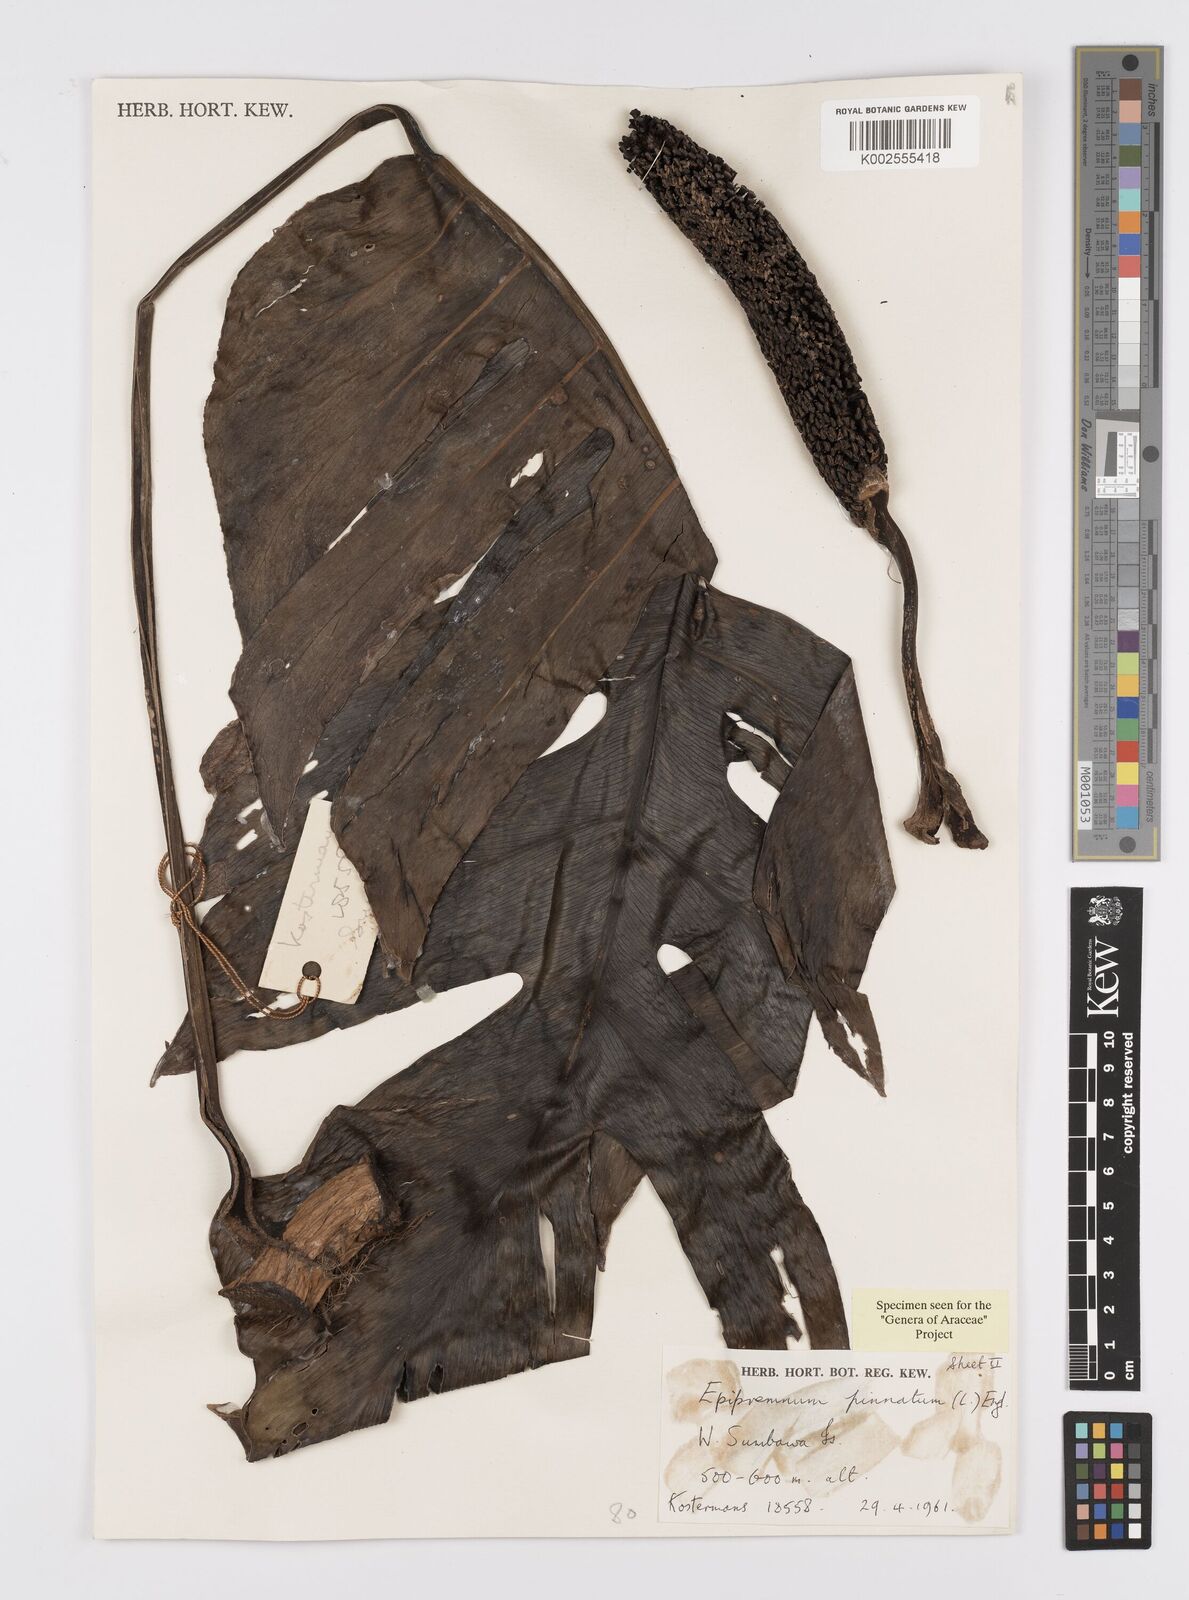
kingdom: Plantae
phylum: Tracheophyta
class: Liliopsida
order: Alismatales
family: Araceae
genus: Epipremnum
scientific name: Epipremnum pinnatum
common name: Centipede tongavine
